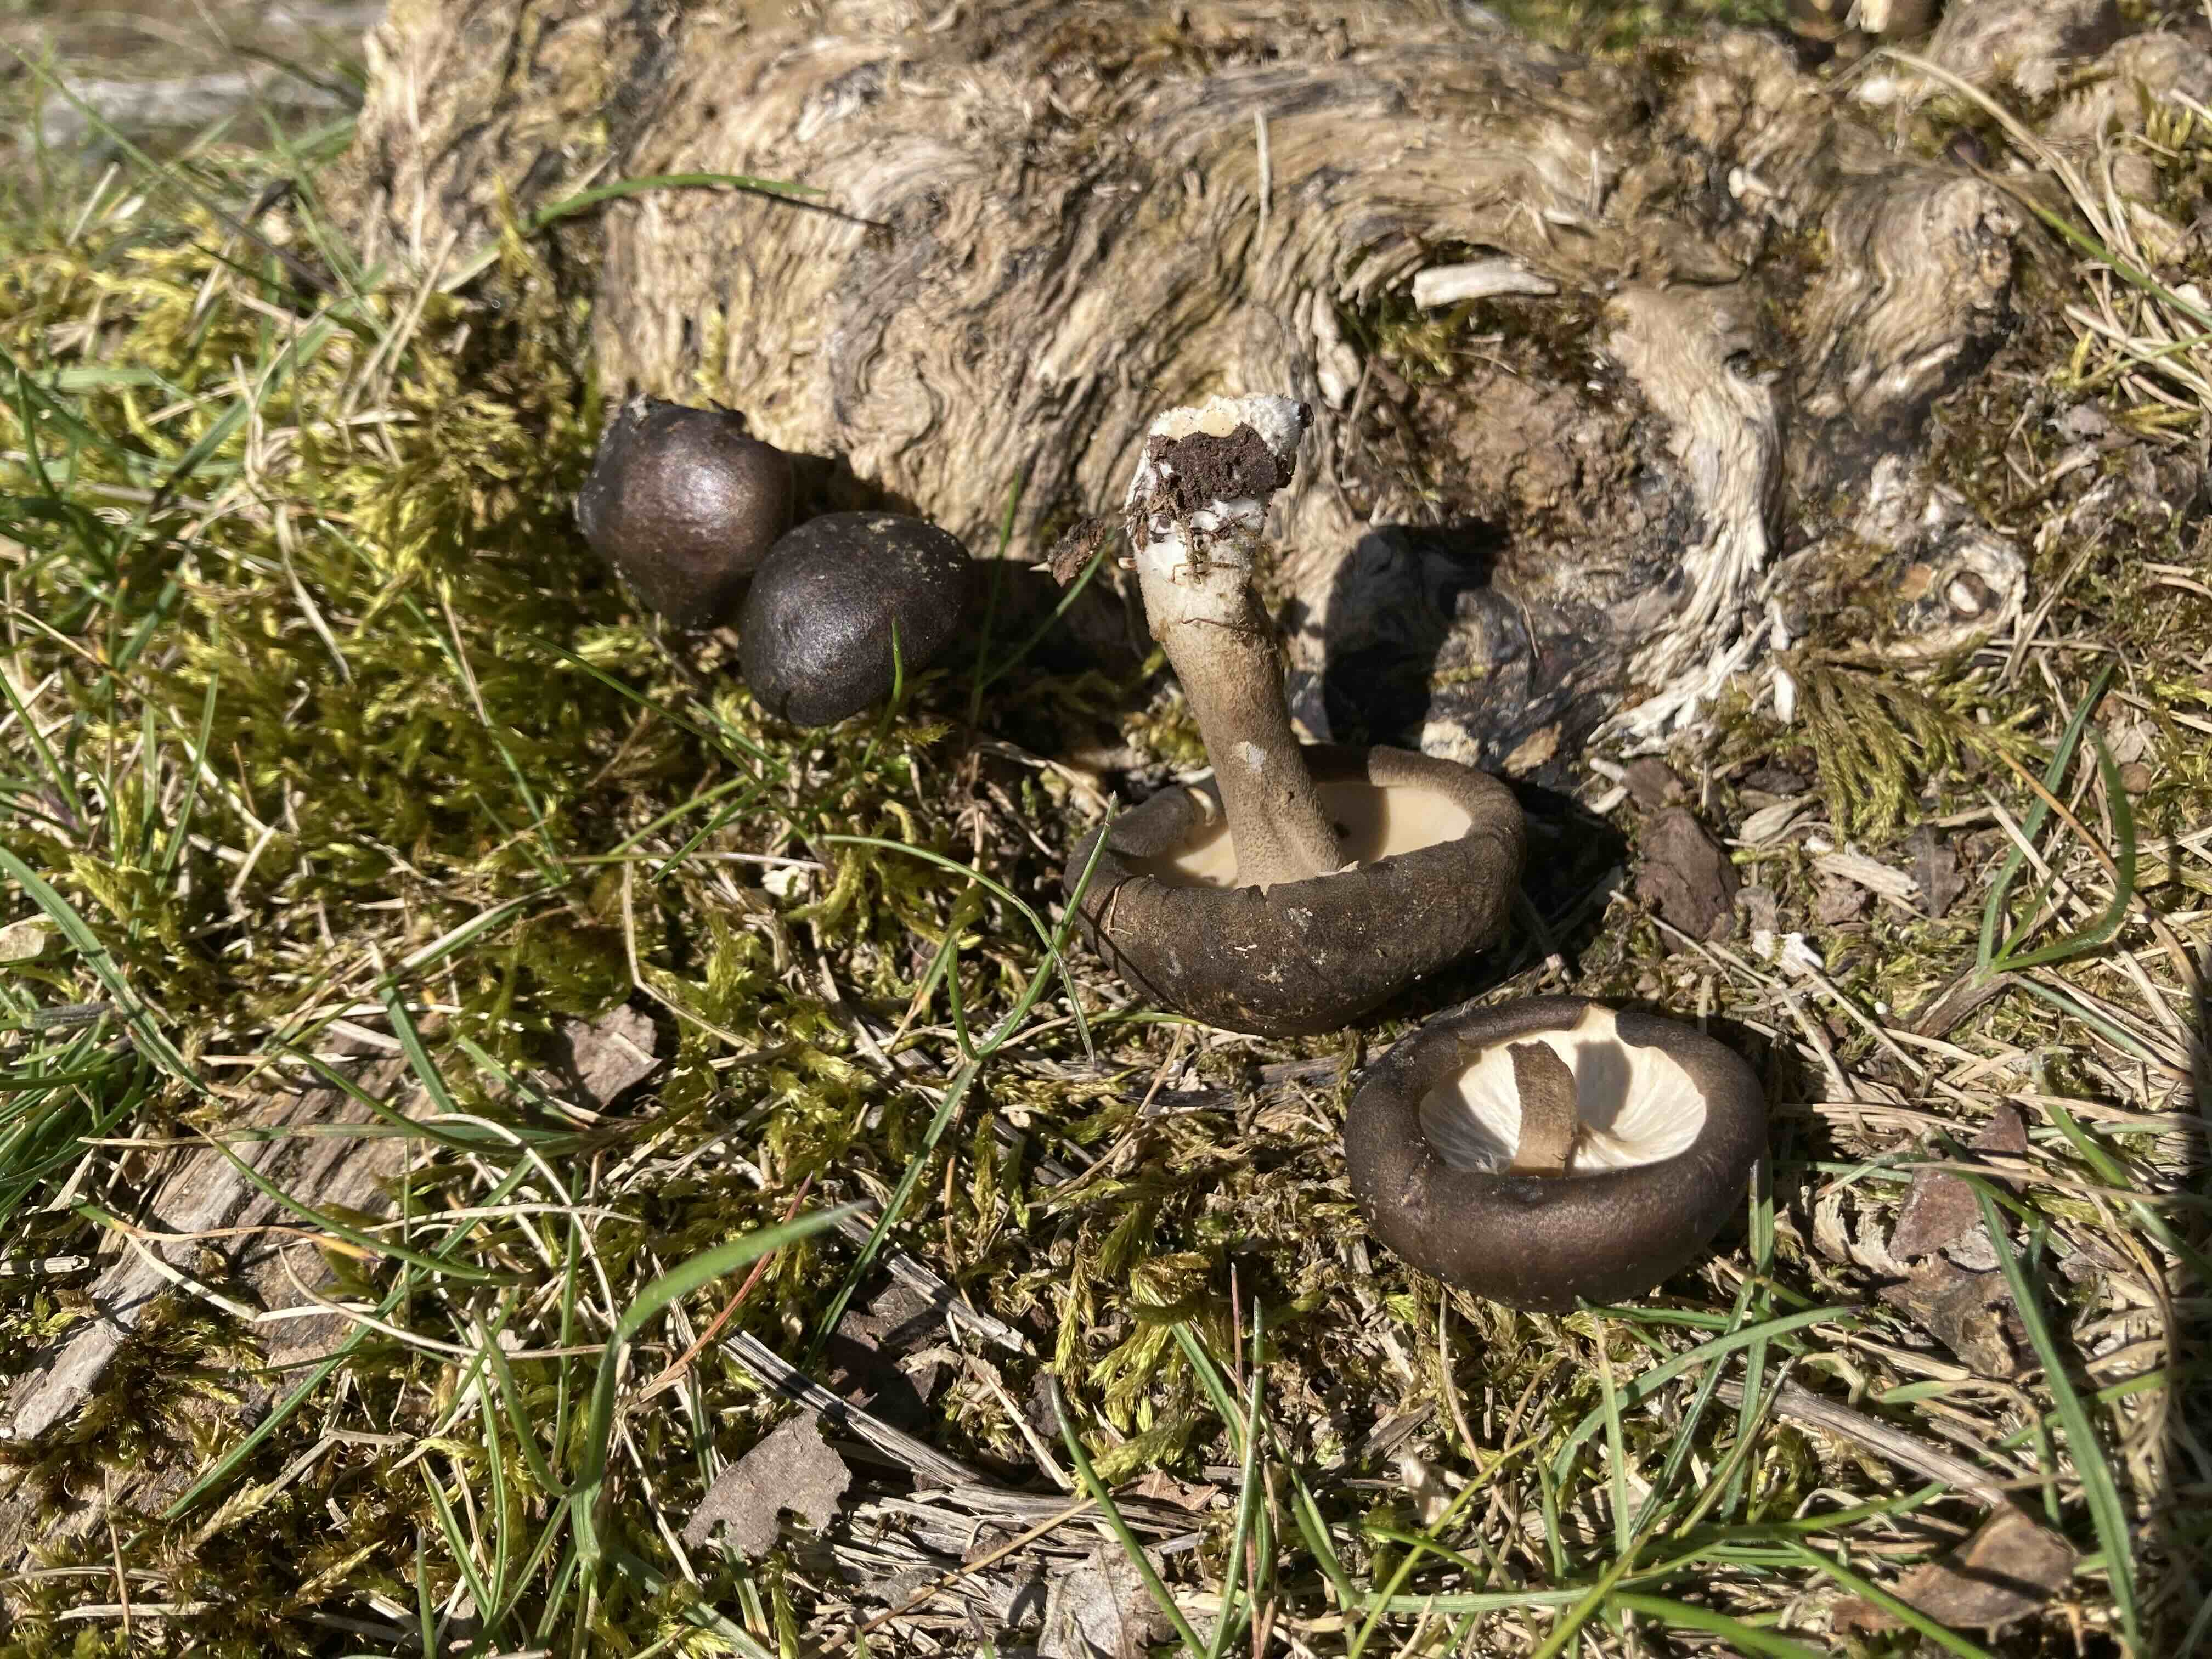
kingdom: Fungi
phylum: Basidiomycota
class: Agaricomycetes
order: Polyporales
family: Polyporaceae
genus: Lentinus
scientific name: Lentinus substrictus
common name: forårs-stilkporesvamp
